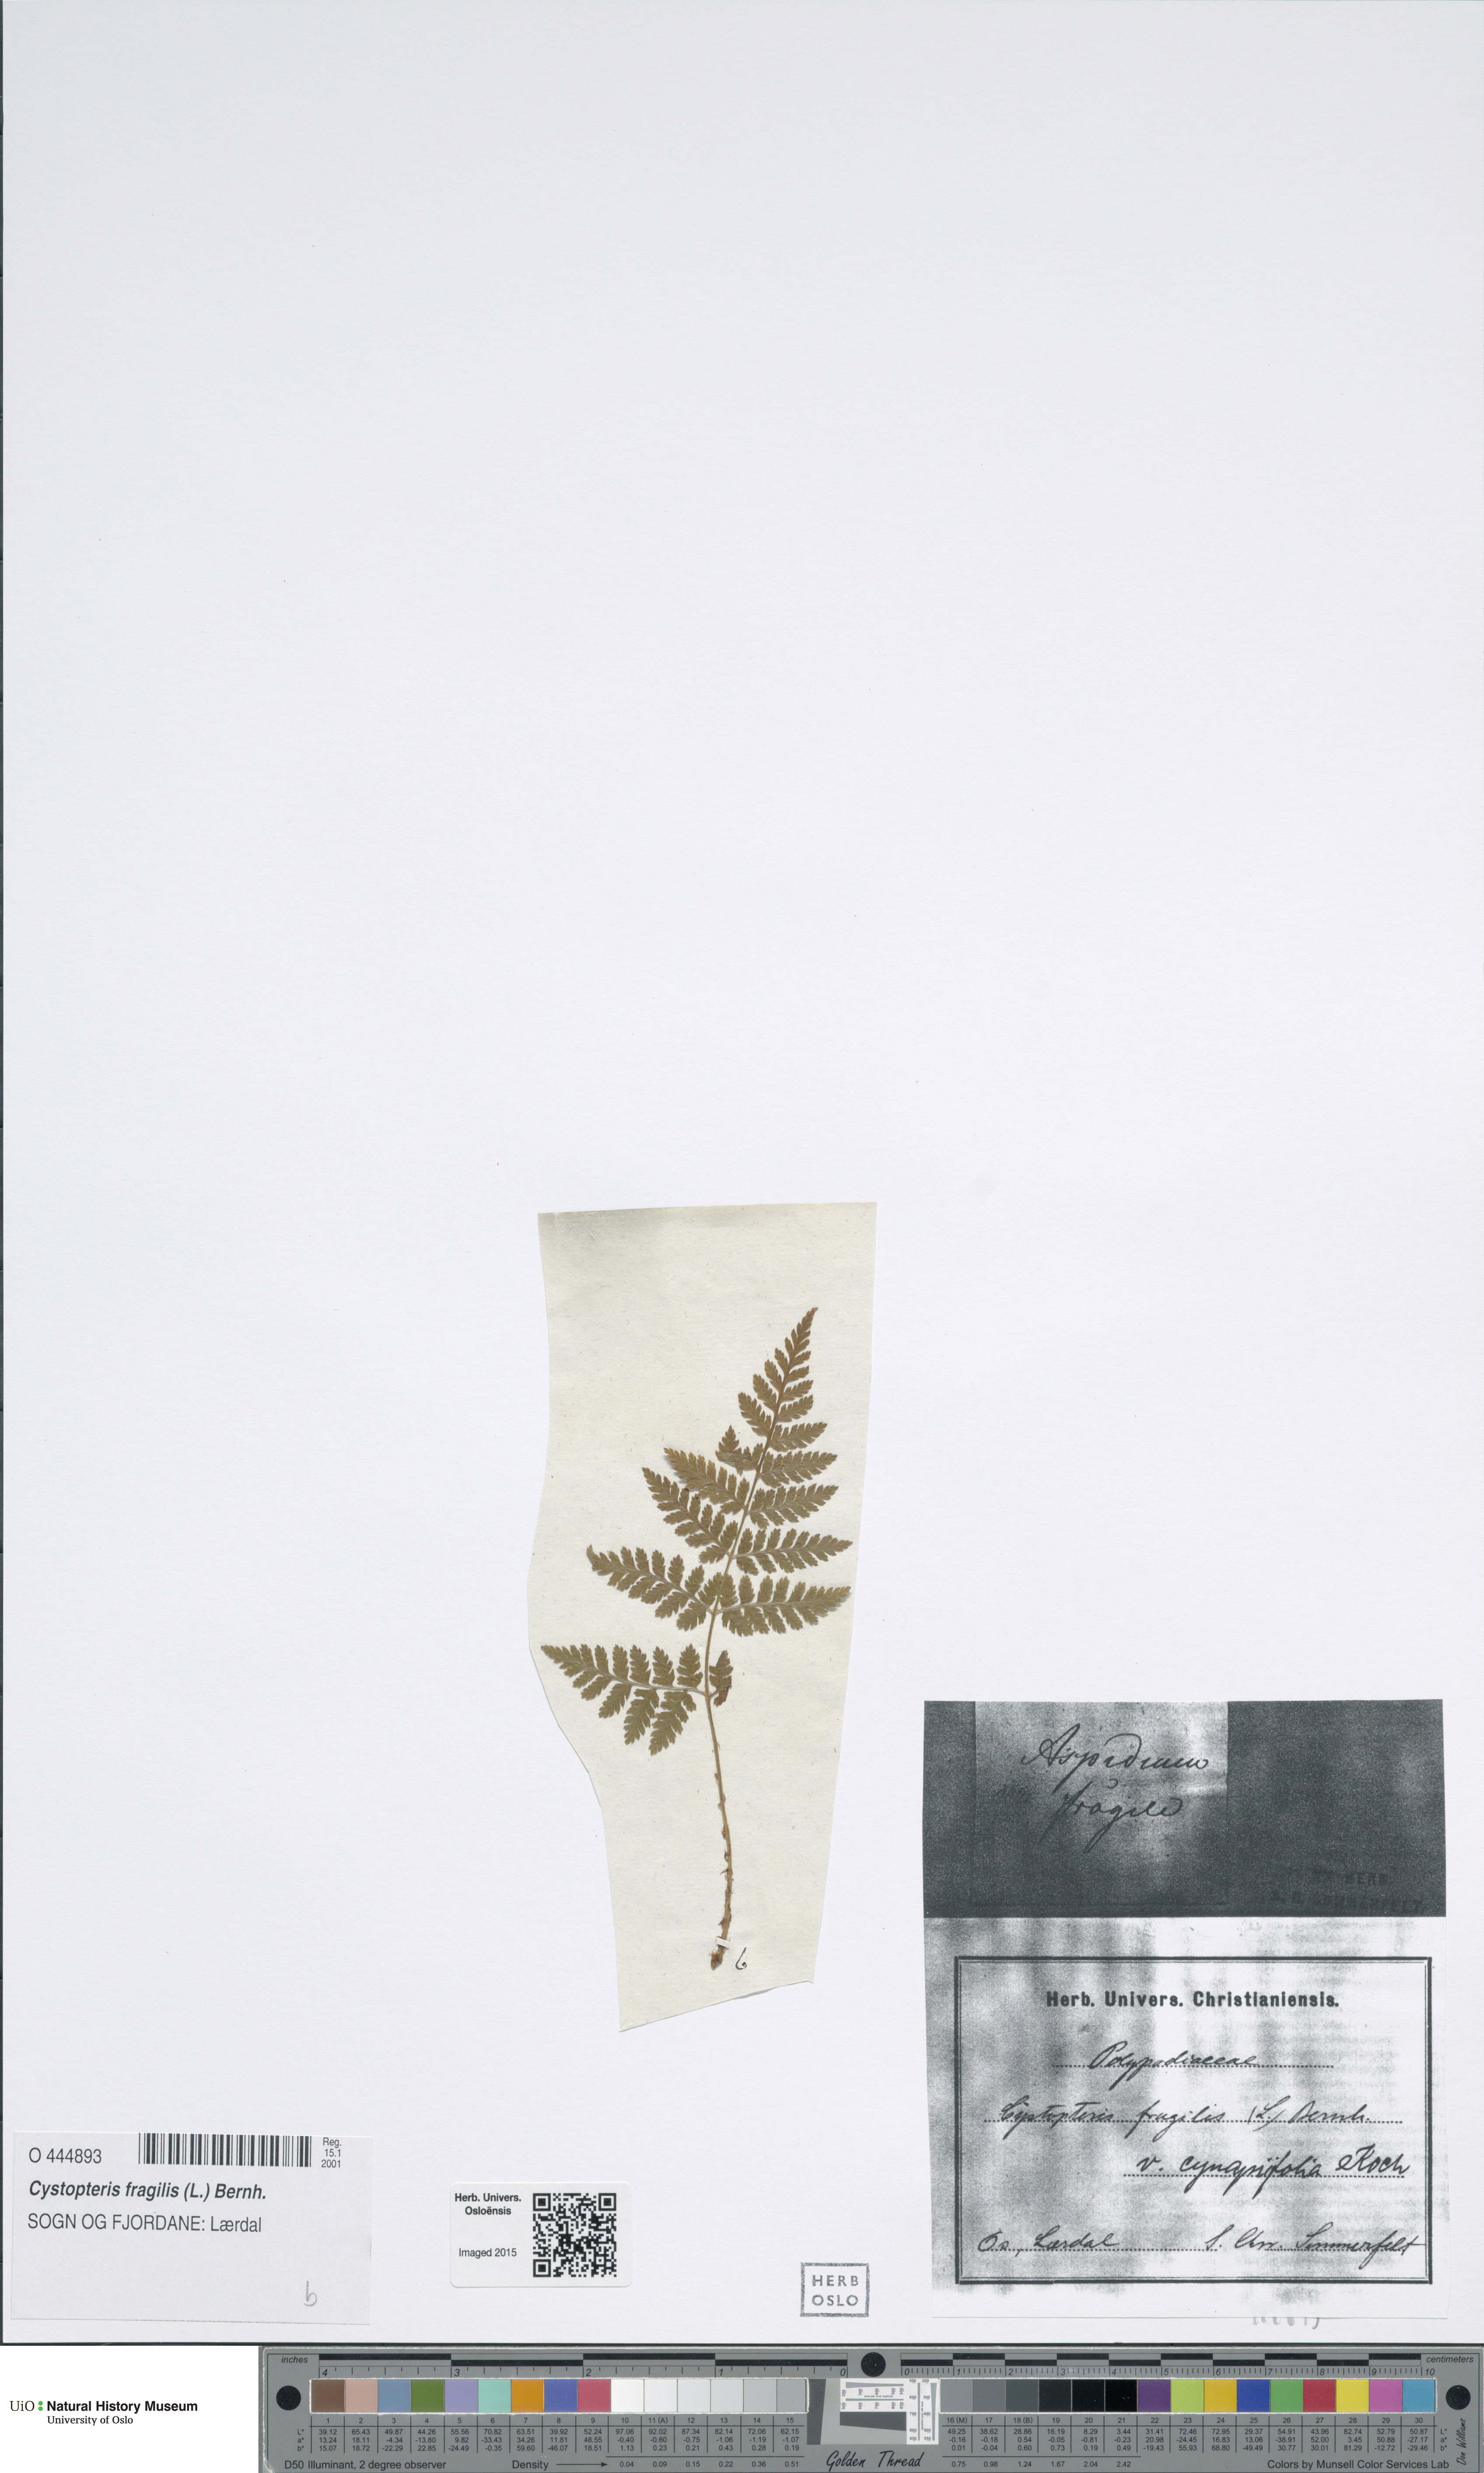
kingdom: Plantae
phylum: Tracheophyta
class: Polypodiopsida
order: Polypodiales
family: Cystopteridaceae
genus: Cystopteris
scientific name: Cystopteris fragilis
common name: Brittle bladder fern
